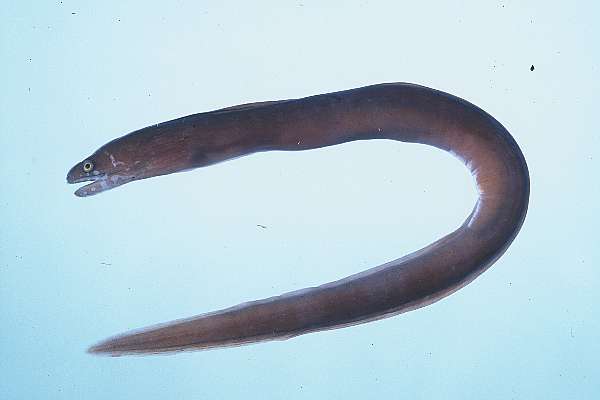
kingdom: Animalia
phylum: Chordata
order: Anguilliformes
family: Muraenidae
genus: Uropterygius
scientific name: Uropterygius kamar
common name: Moon moray
